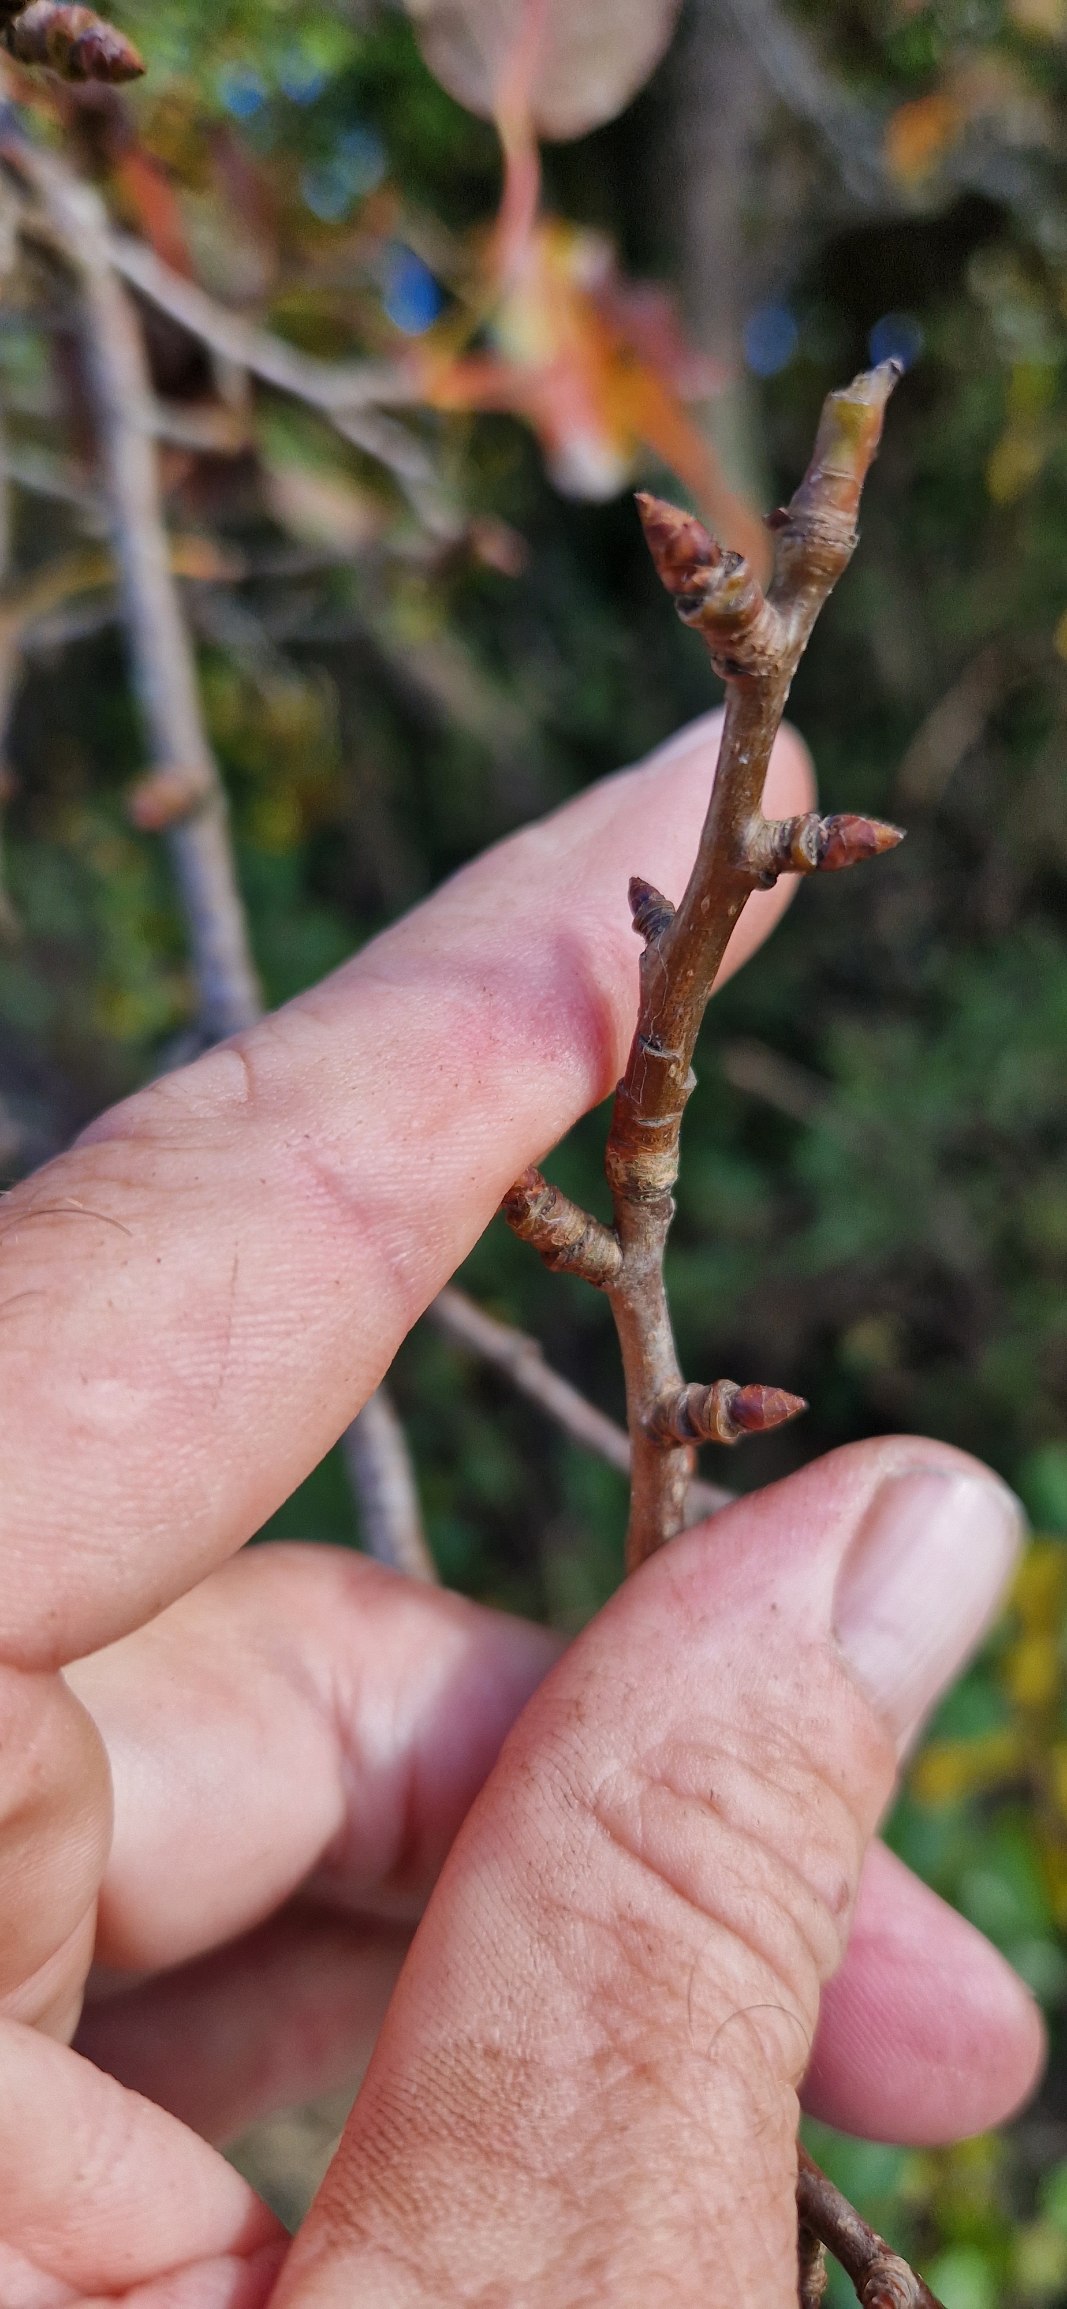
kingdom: Plantae
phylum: Tracheophyta
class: Magnoliopsida
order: Rosales
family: Rosaceae
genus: Pyrus
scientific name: Pyrus communis
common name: Pære
